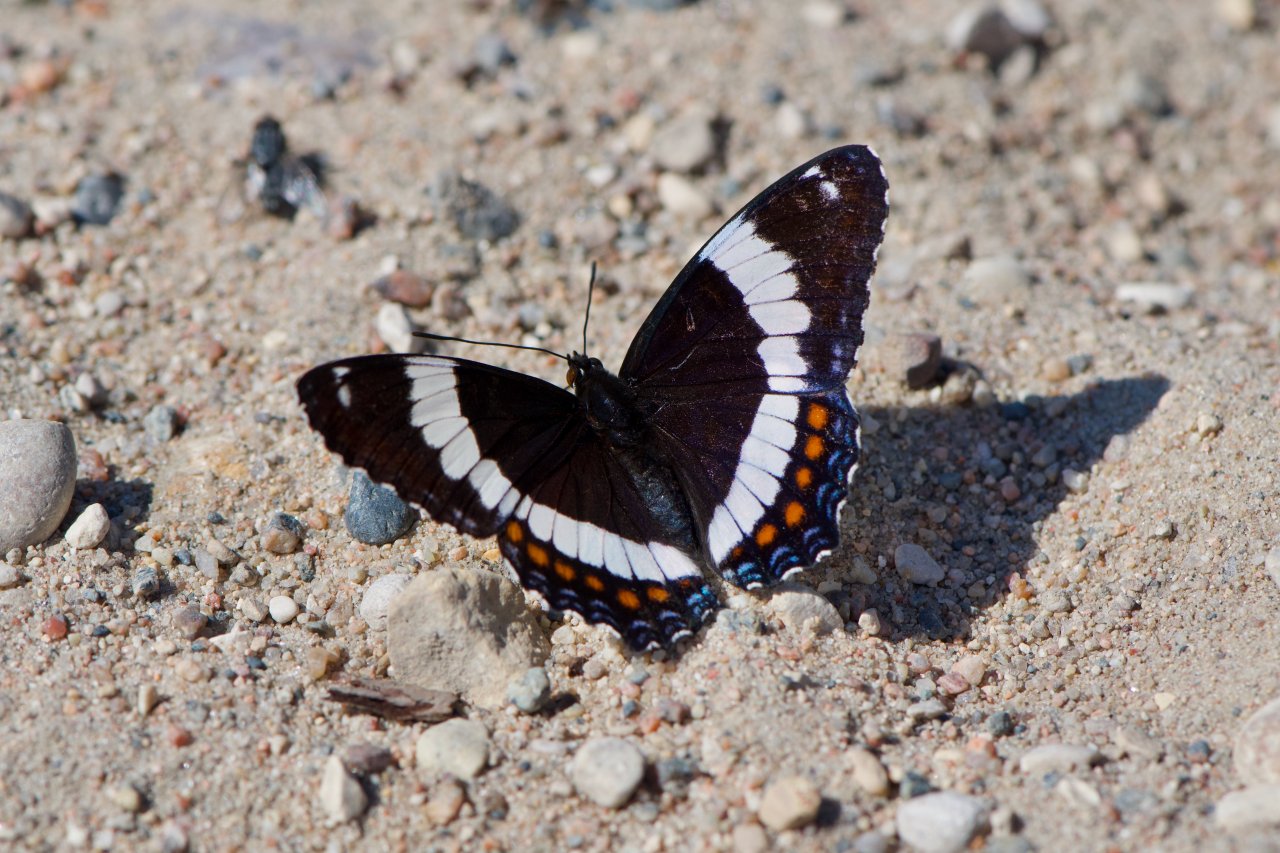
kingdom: Animalia
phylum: Arthropoda
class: Insecta
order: Lepidoptera
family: Nymphalidae
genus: Limenitis
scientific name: Limenitis arthemis
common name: Red-spotted Admiral
